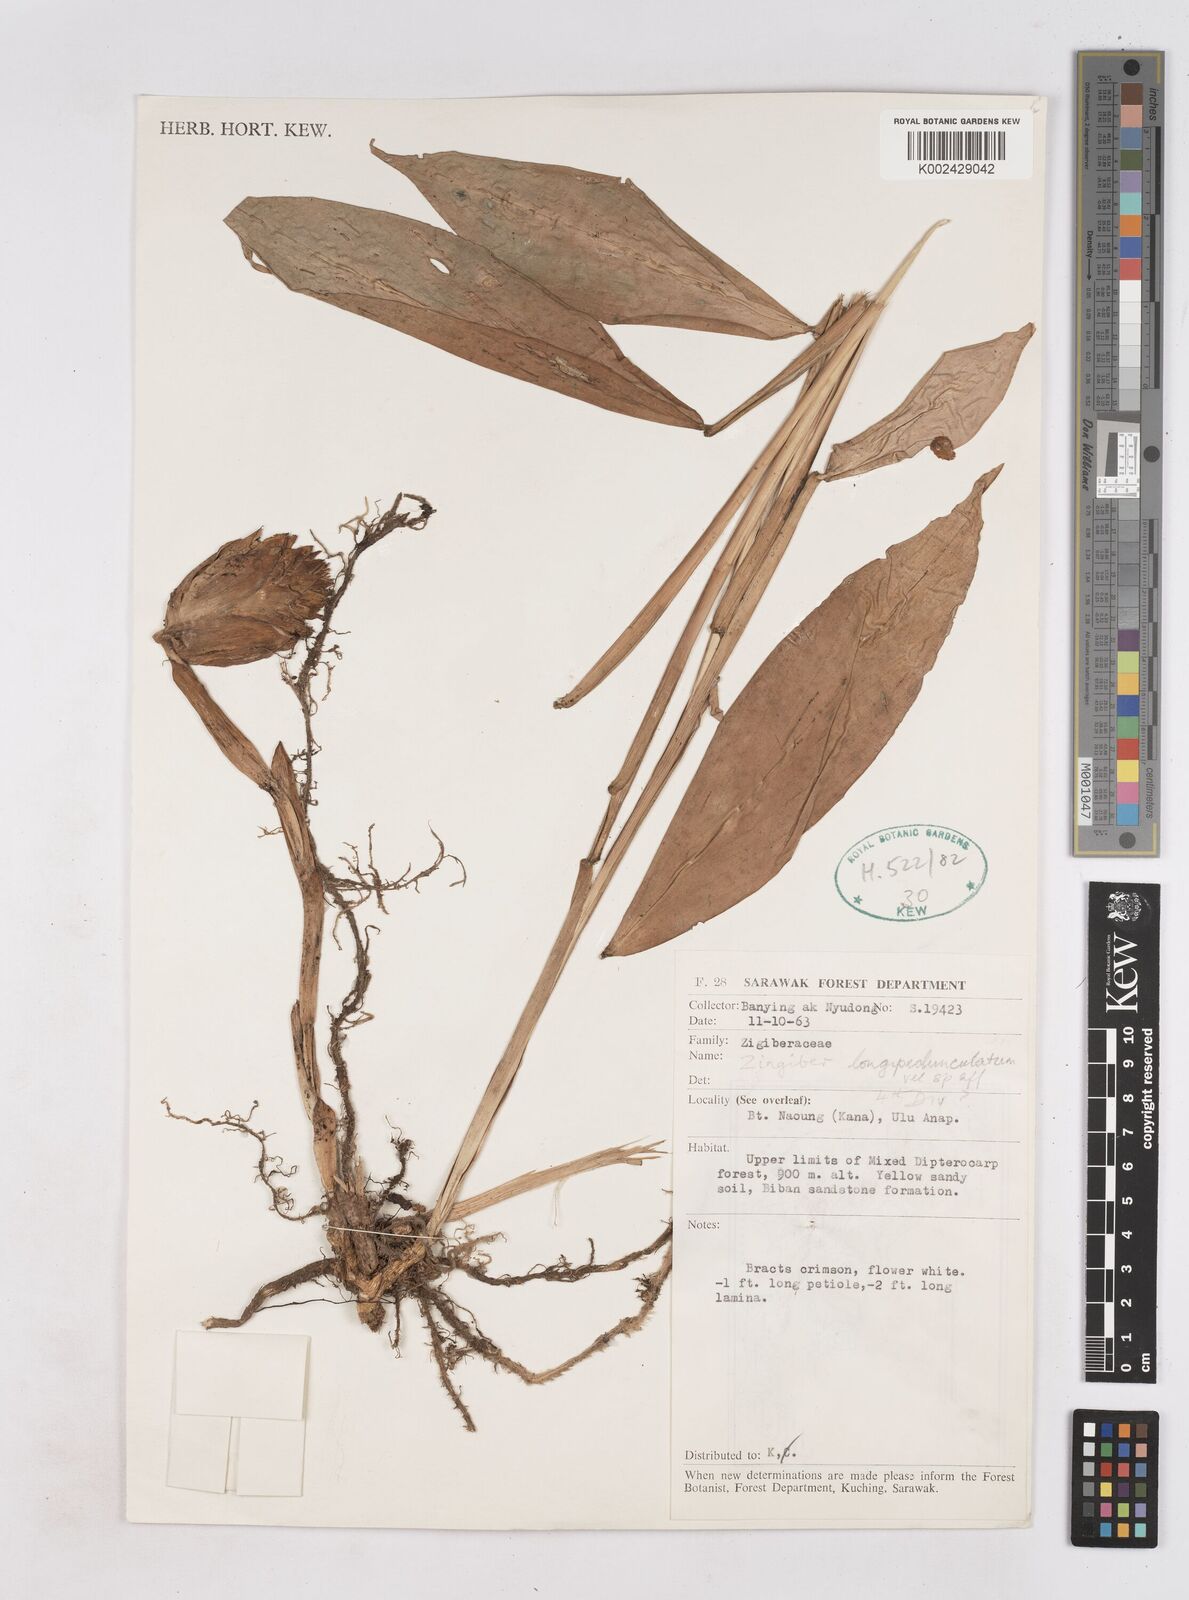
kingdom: Plantae
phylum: Tracheophyta
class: Liliopsida
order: Zingiberales
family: Zingiberaceae
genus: Zingiber
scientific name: Zingiber longipedunculatum
